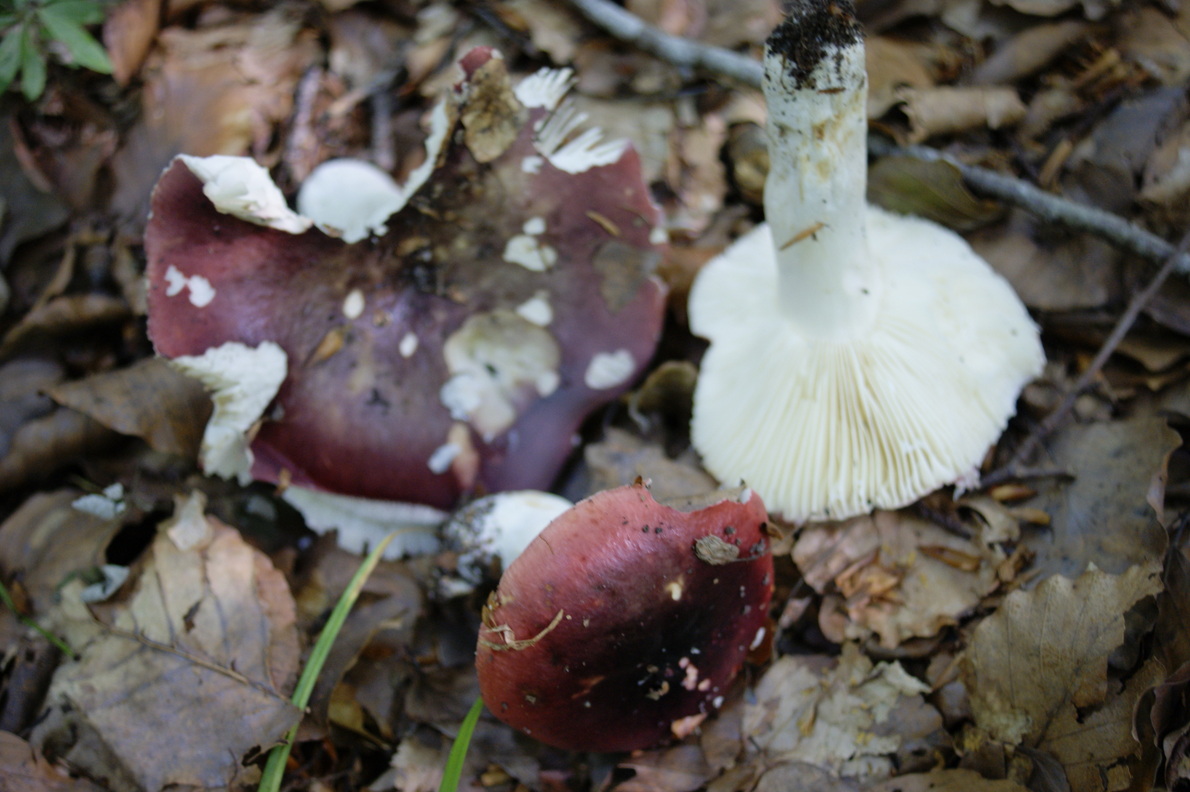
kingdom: Fungi
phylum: Basidiomycota
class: Agaricomycetes
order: Russulales
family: Russulaceae
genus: Russula
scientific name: Russula atropurpurea
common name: purpurbroget skørhat
